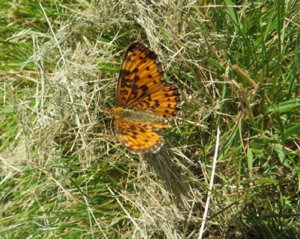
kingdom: Animalia
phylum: Arthropoda
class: Insecta
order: Lepidoptera
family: Nymphalidae
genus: Speyeria
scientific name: Speyeria atlantis
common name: Atlantis Fritillary
